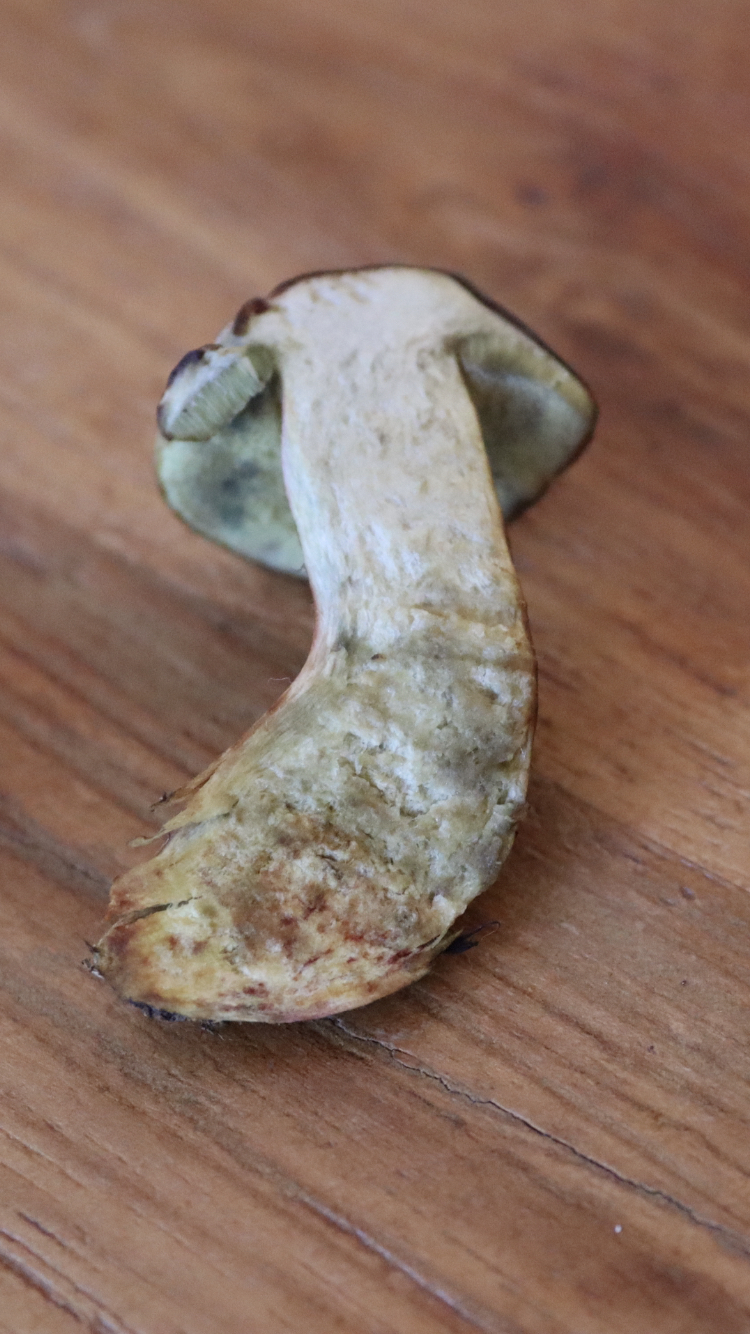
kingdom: Fungi
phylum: Basidiomycota
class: Agaricomycetes
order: Boletales
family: Boletaceae
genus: Hortiboletus
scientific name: Hortiboletus
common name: dværgrørhat
